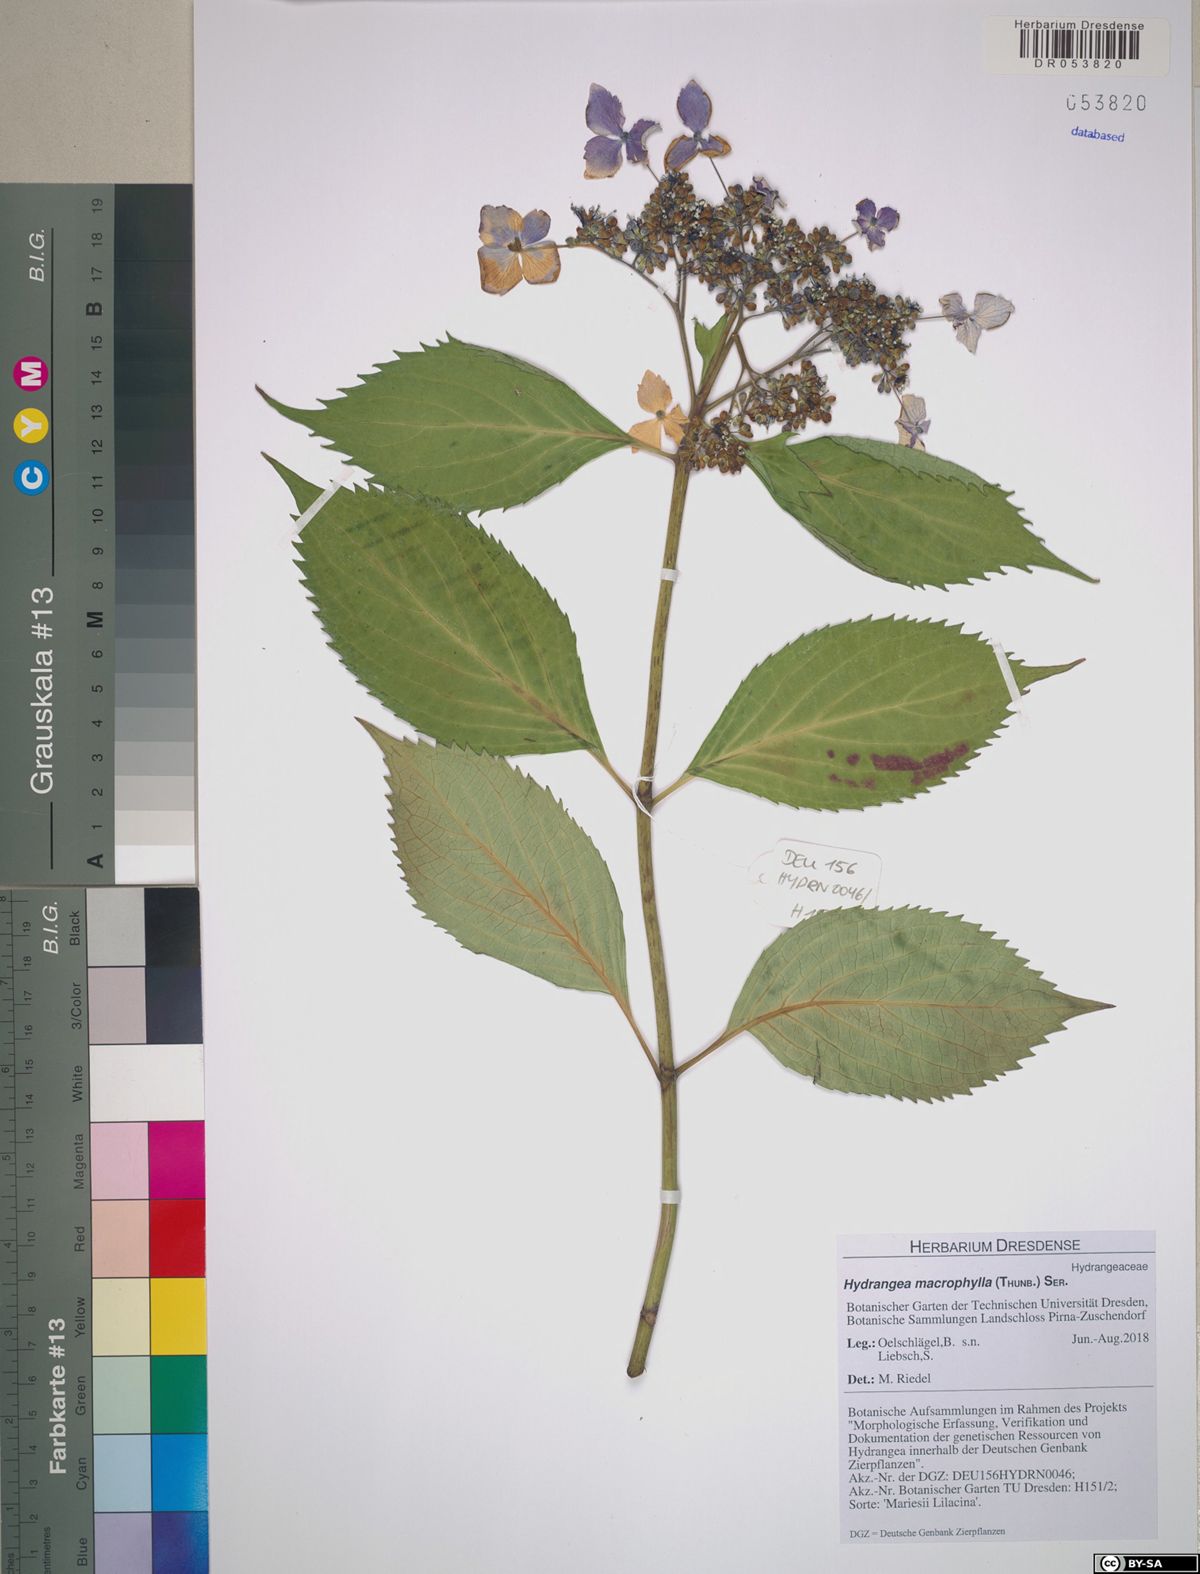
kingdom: Plantae
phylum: Tracheophyta
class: Magnoliopsida
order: Cornales
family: Hydrangeaceae
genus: Hydrangea
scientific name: Hydrangea macrophylla
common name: Hydrangea
